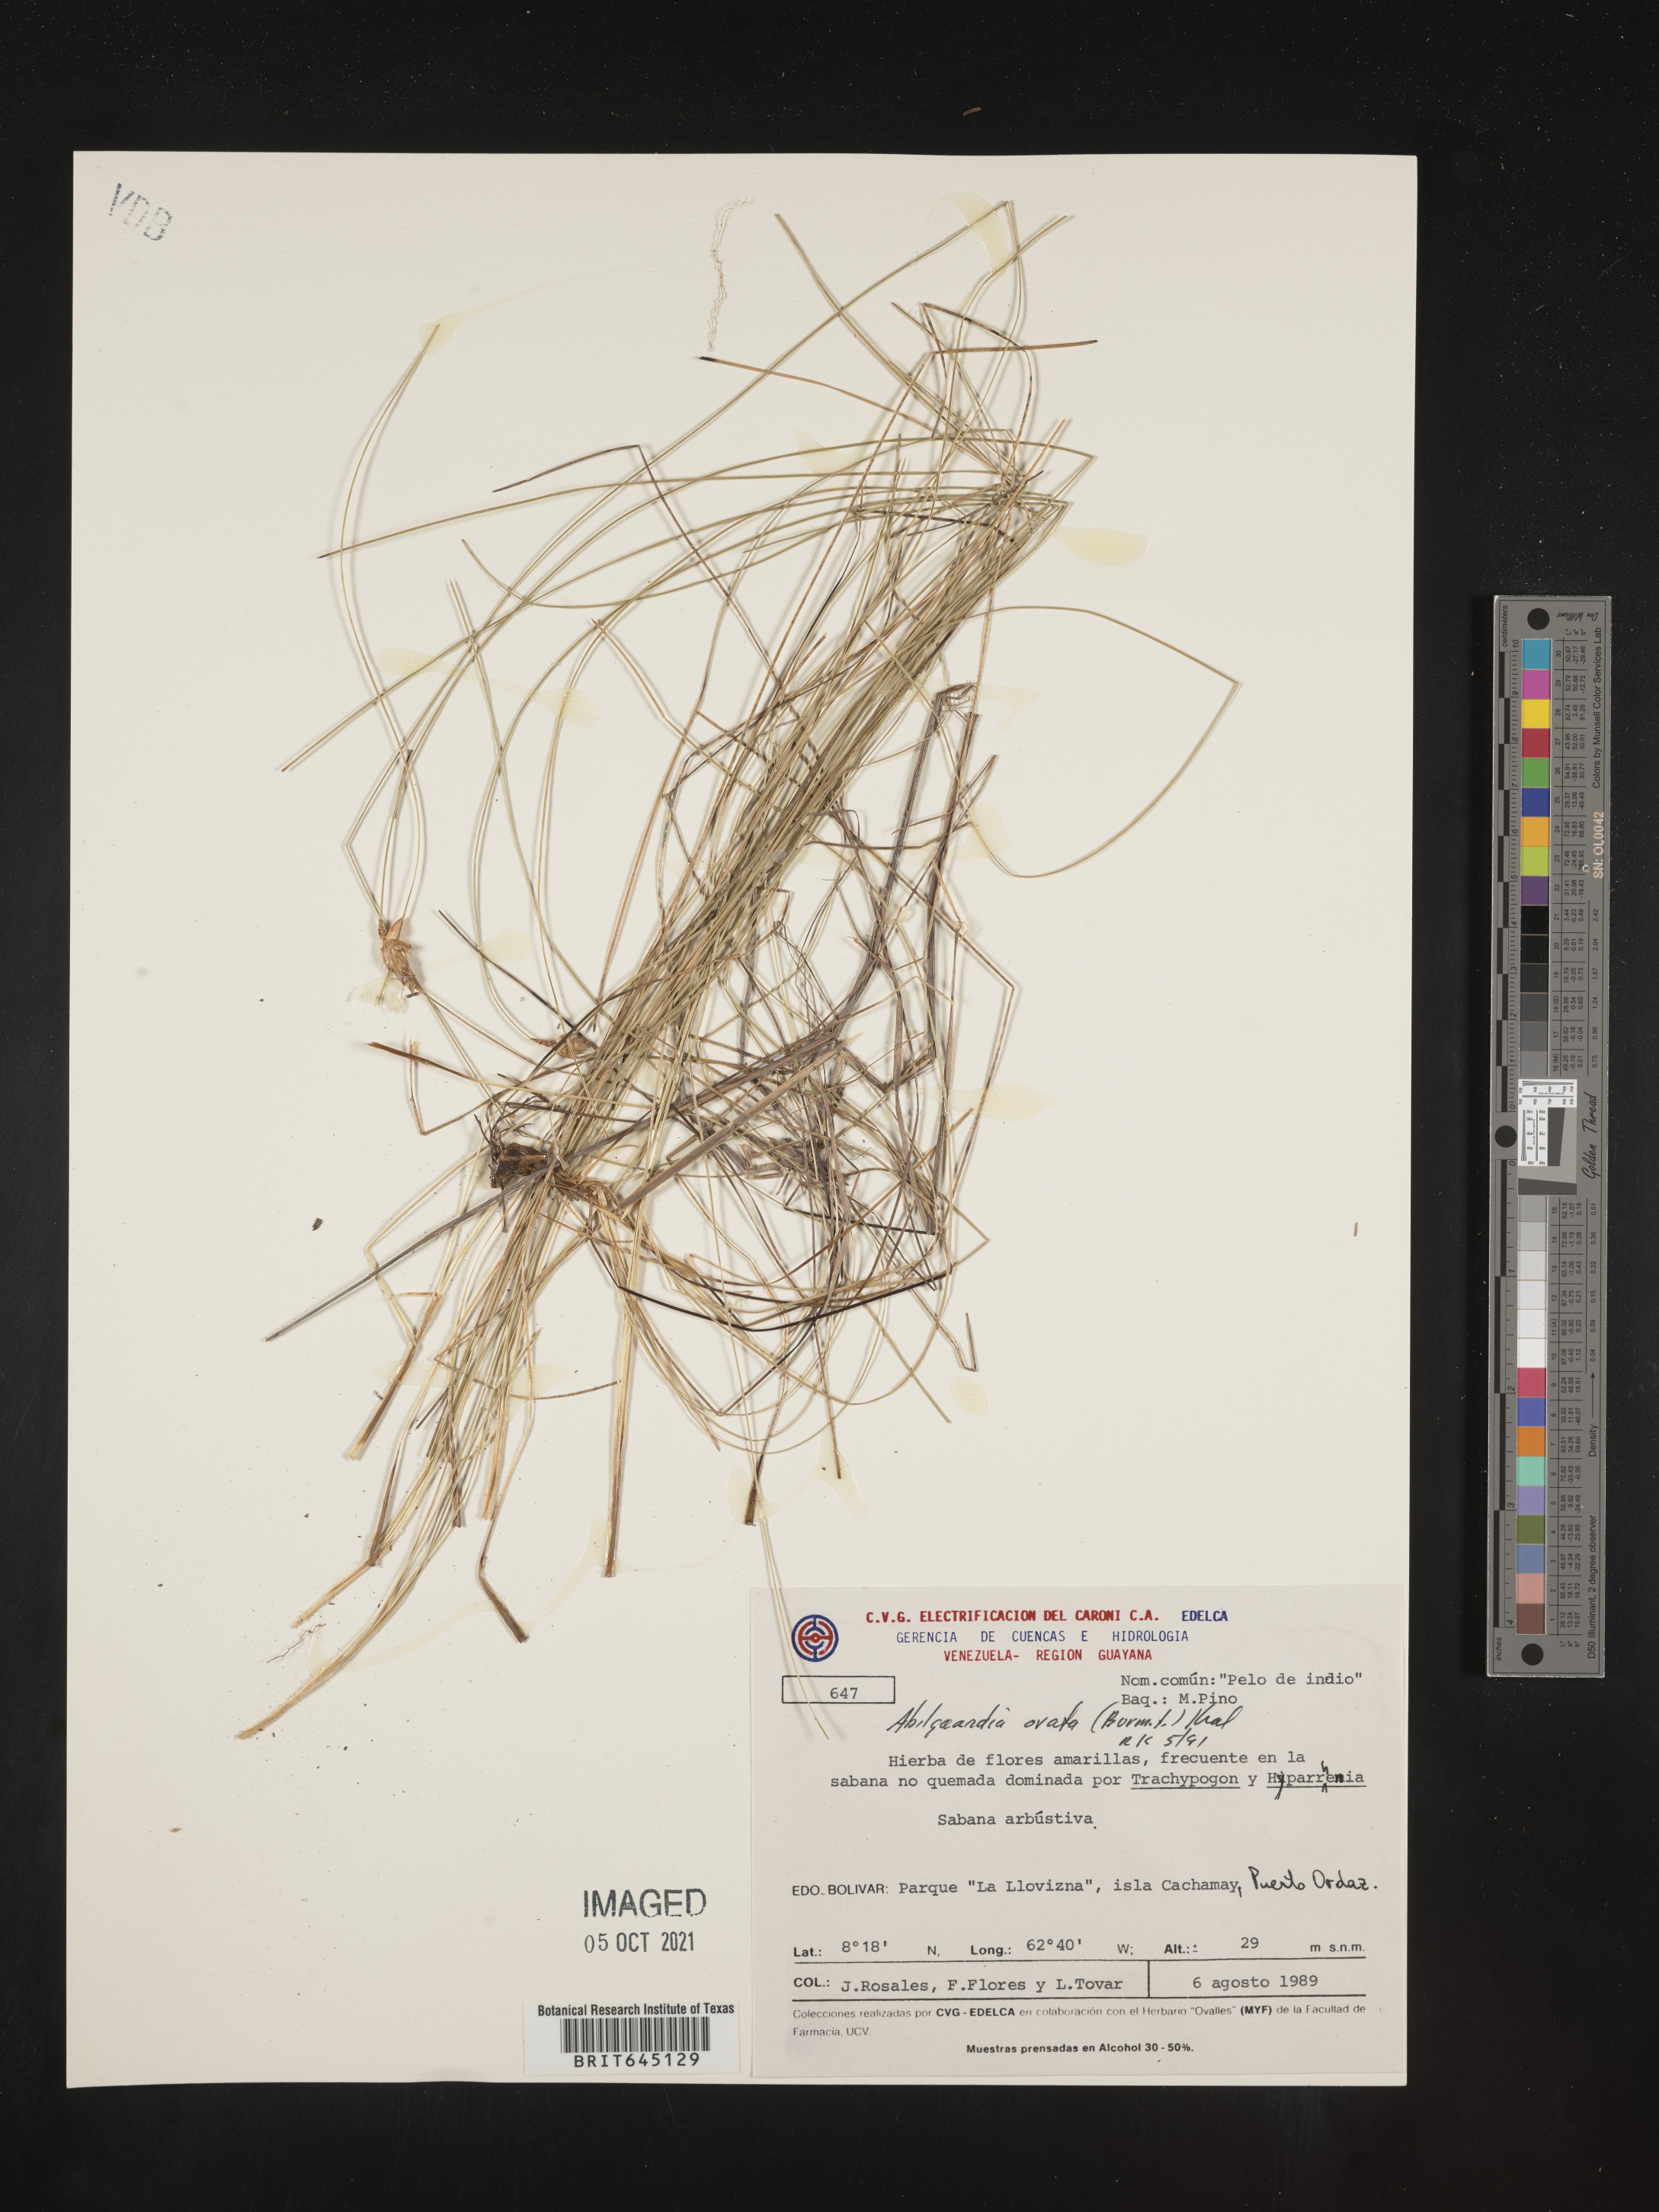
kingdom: Plantae
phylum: Tracheophyta
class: Liliopsida
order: Poales
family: Cyperaceae
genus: Abildgaardia
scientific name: Abildgaardia ovata
